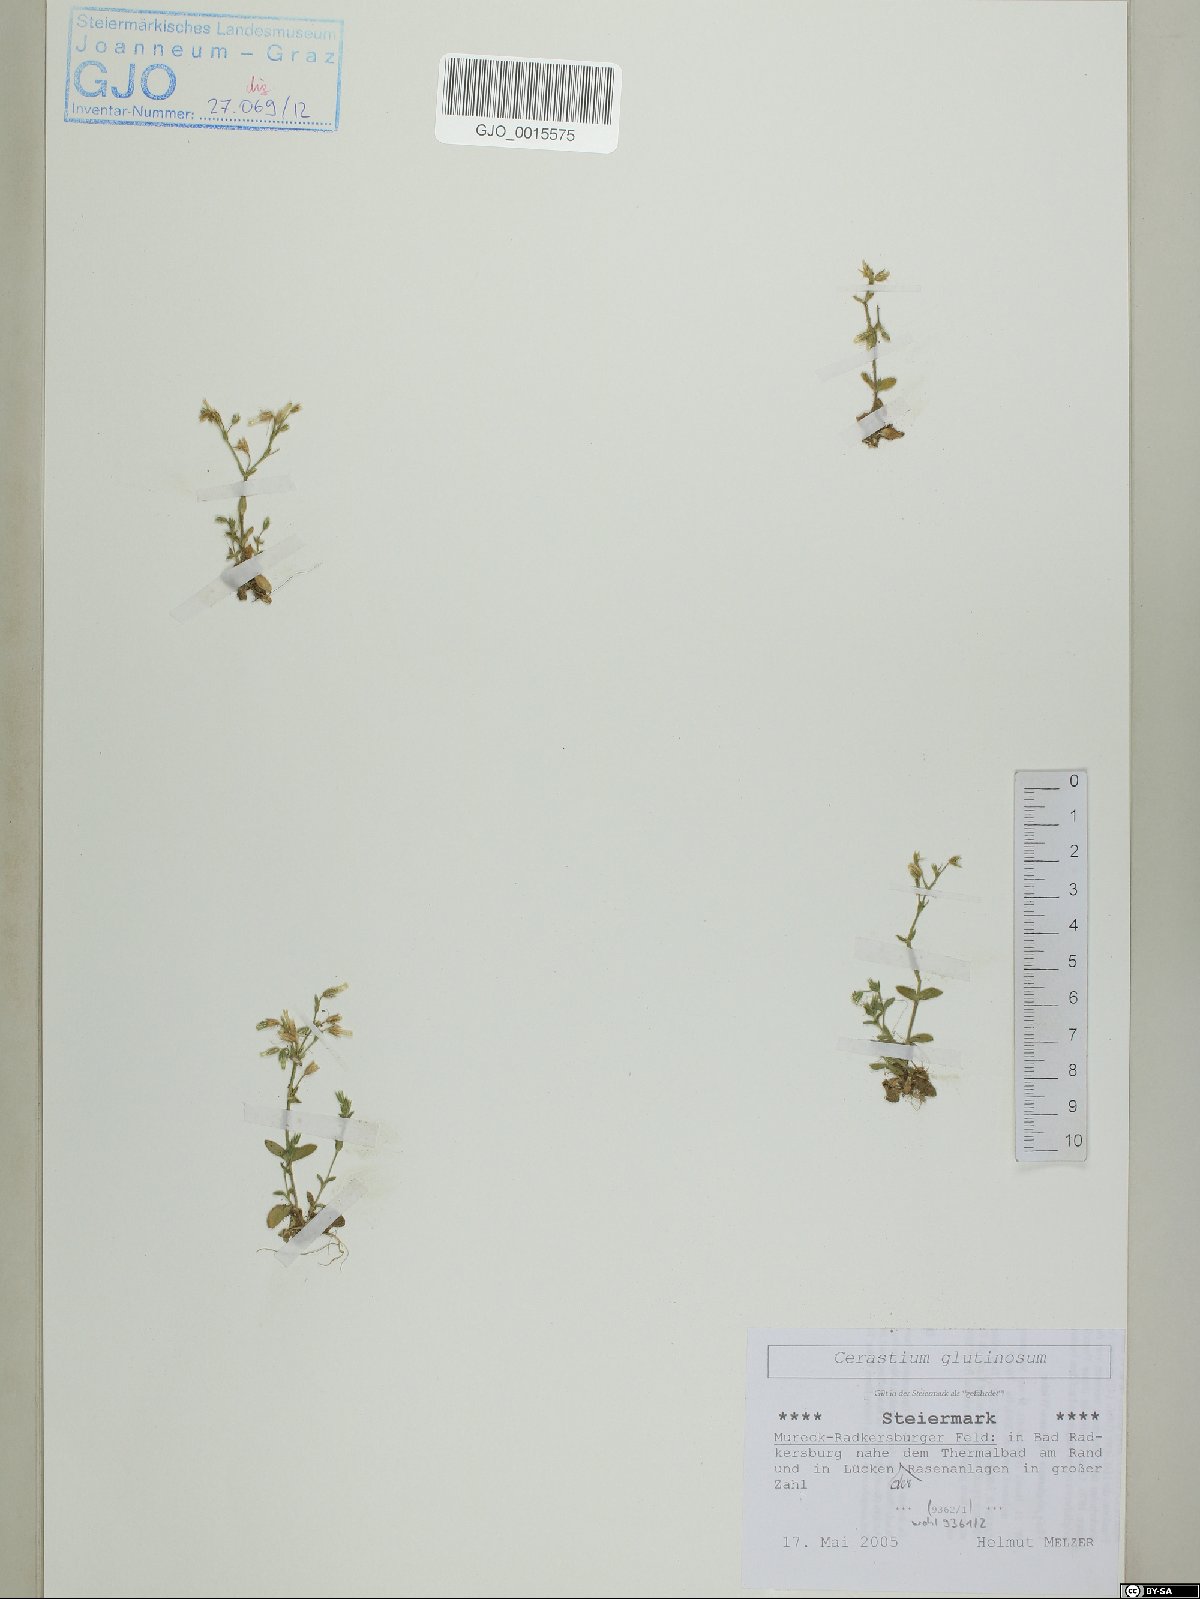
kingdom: Plantae
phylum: Tracheophyta
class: Magnoliopsida
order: Caryophyllales
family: Caryophyllaceae
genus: Cerastium
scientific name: Cerastium glutinosum
